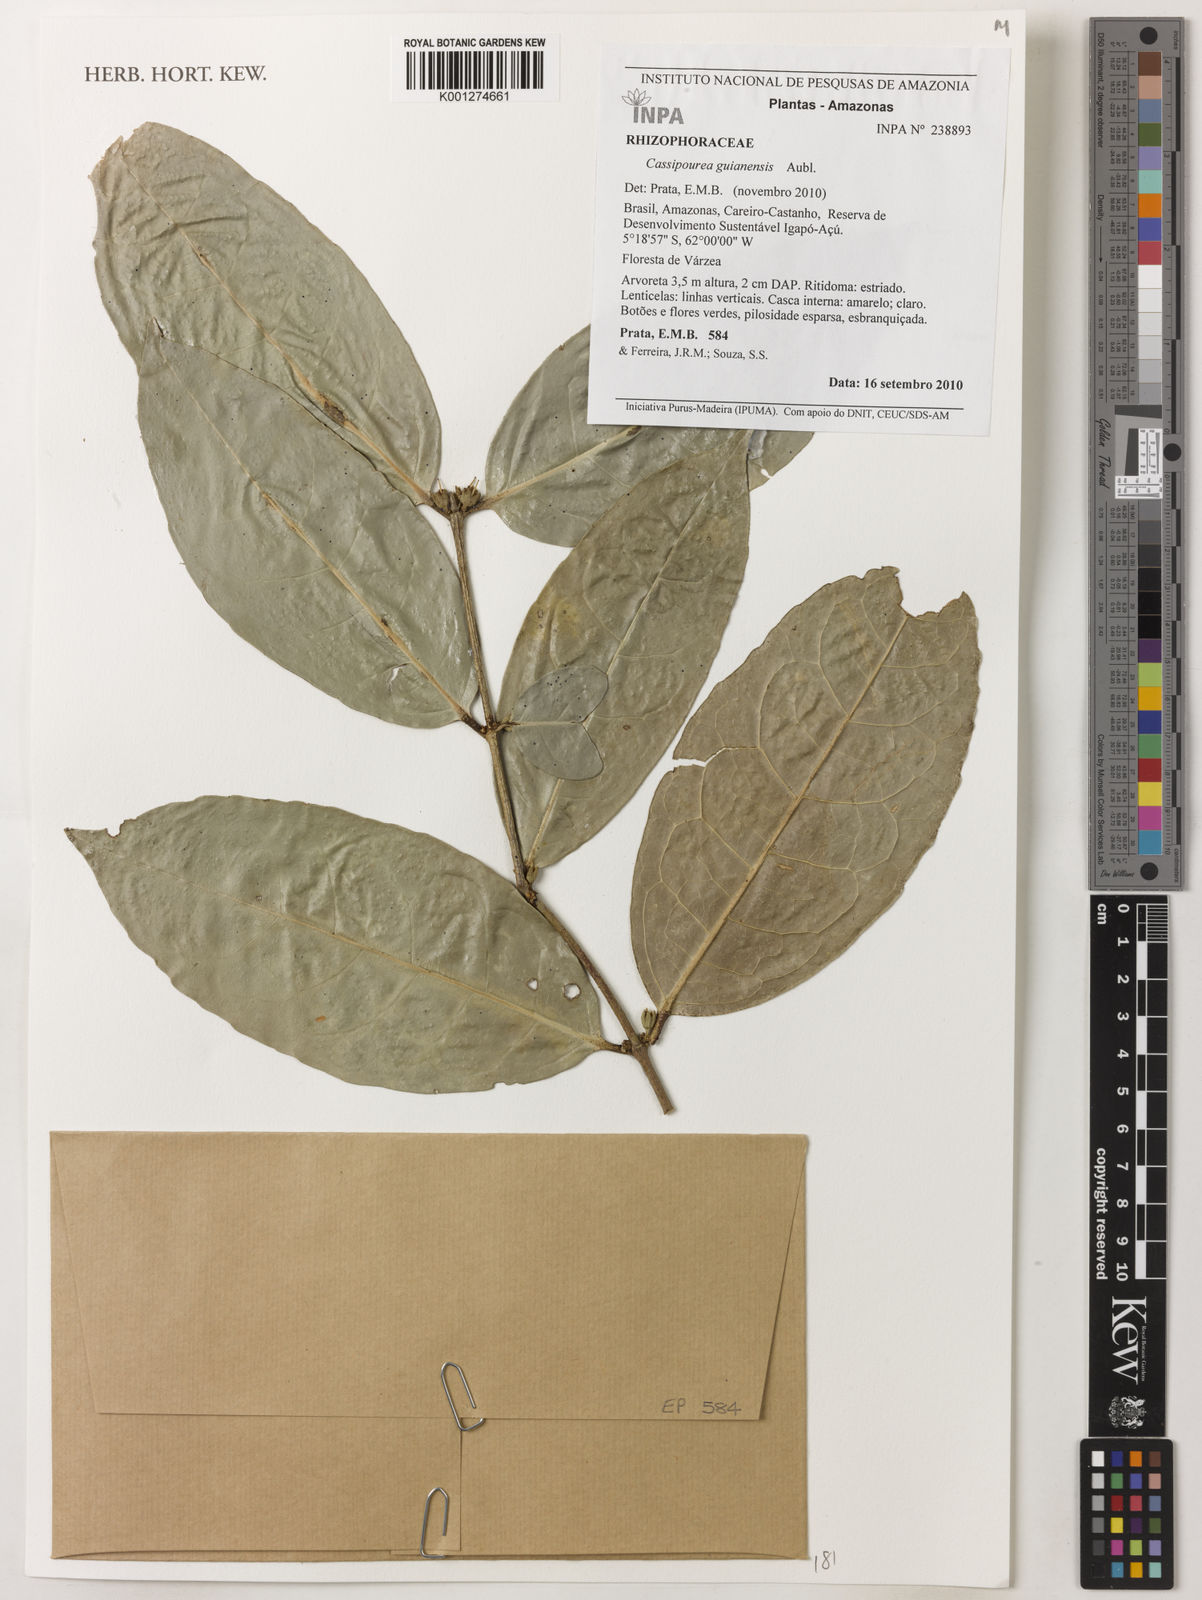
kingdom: Plantae
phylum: Tracheophyta
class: Magnoliopsida
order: Malpighiales
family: Rhizophoraceae
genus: Cassipourea
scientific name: Cassipourea guianensis
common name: Bastard waterwood
